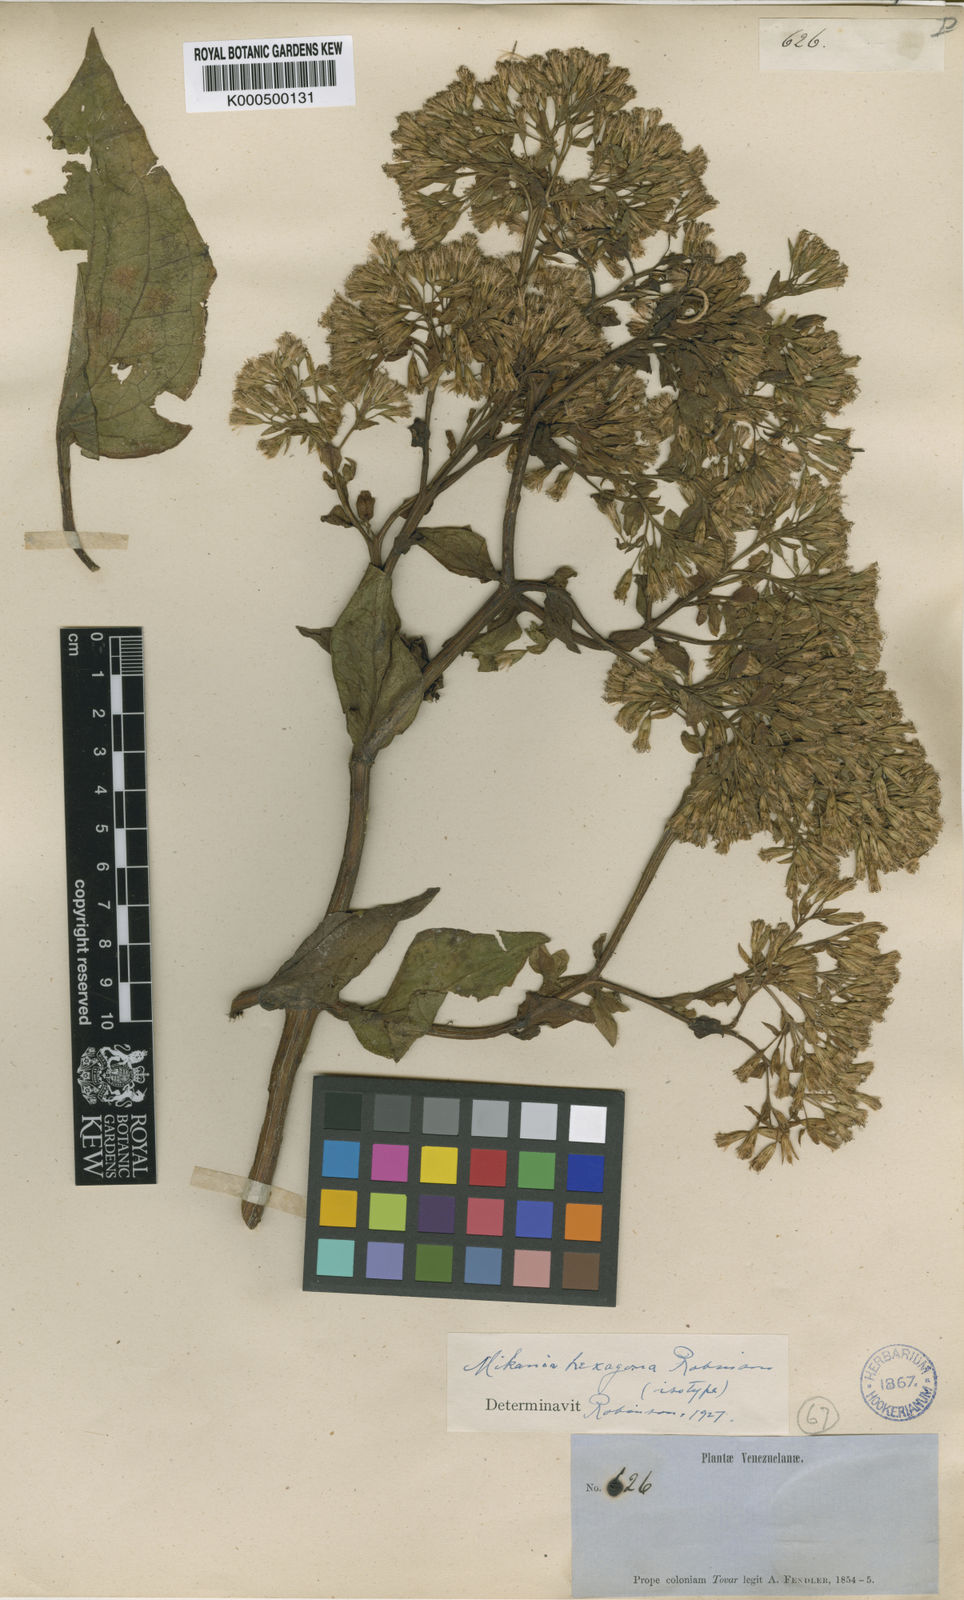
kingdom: Plantae
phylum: Tracheophyta
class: Magnoliopsida
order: Asterales
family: Asteraceae
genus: Mikania
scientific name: Mikania microptera
